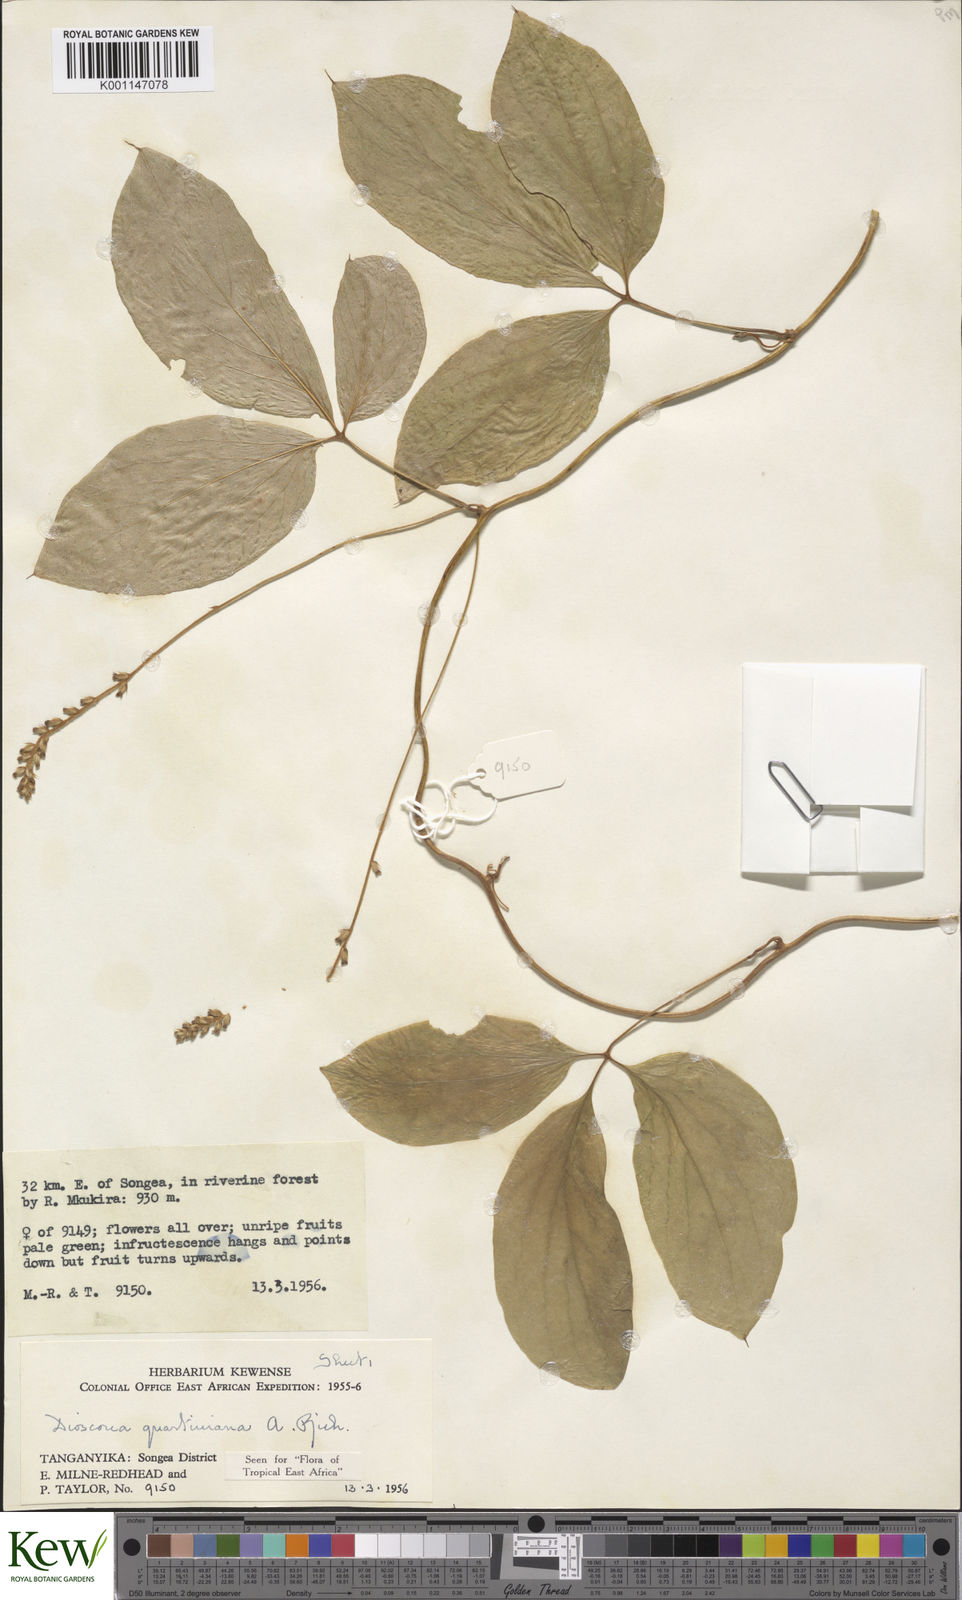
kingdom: Plantae
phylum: Tracheophyta
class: Liliopsida
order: Dioscoreales
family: Dioscoreaceae
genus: Dioscorea
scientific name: Dioscorea quartiniana
